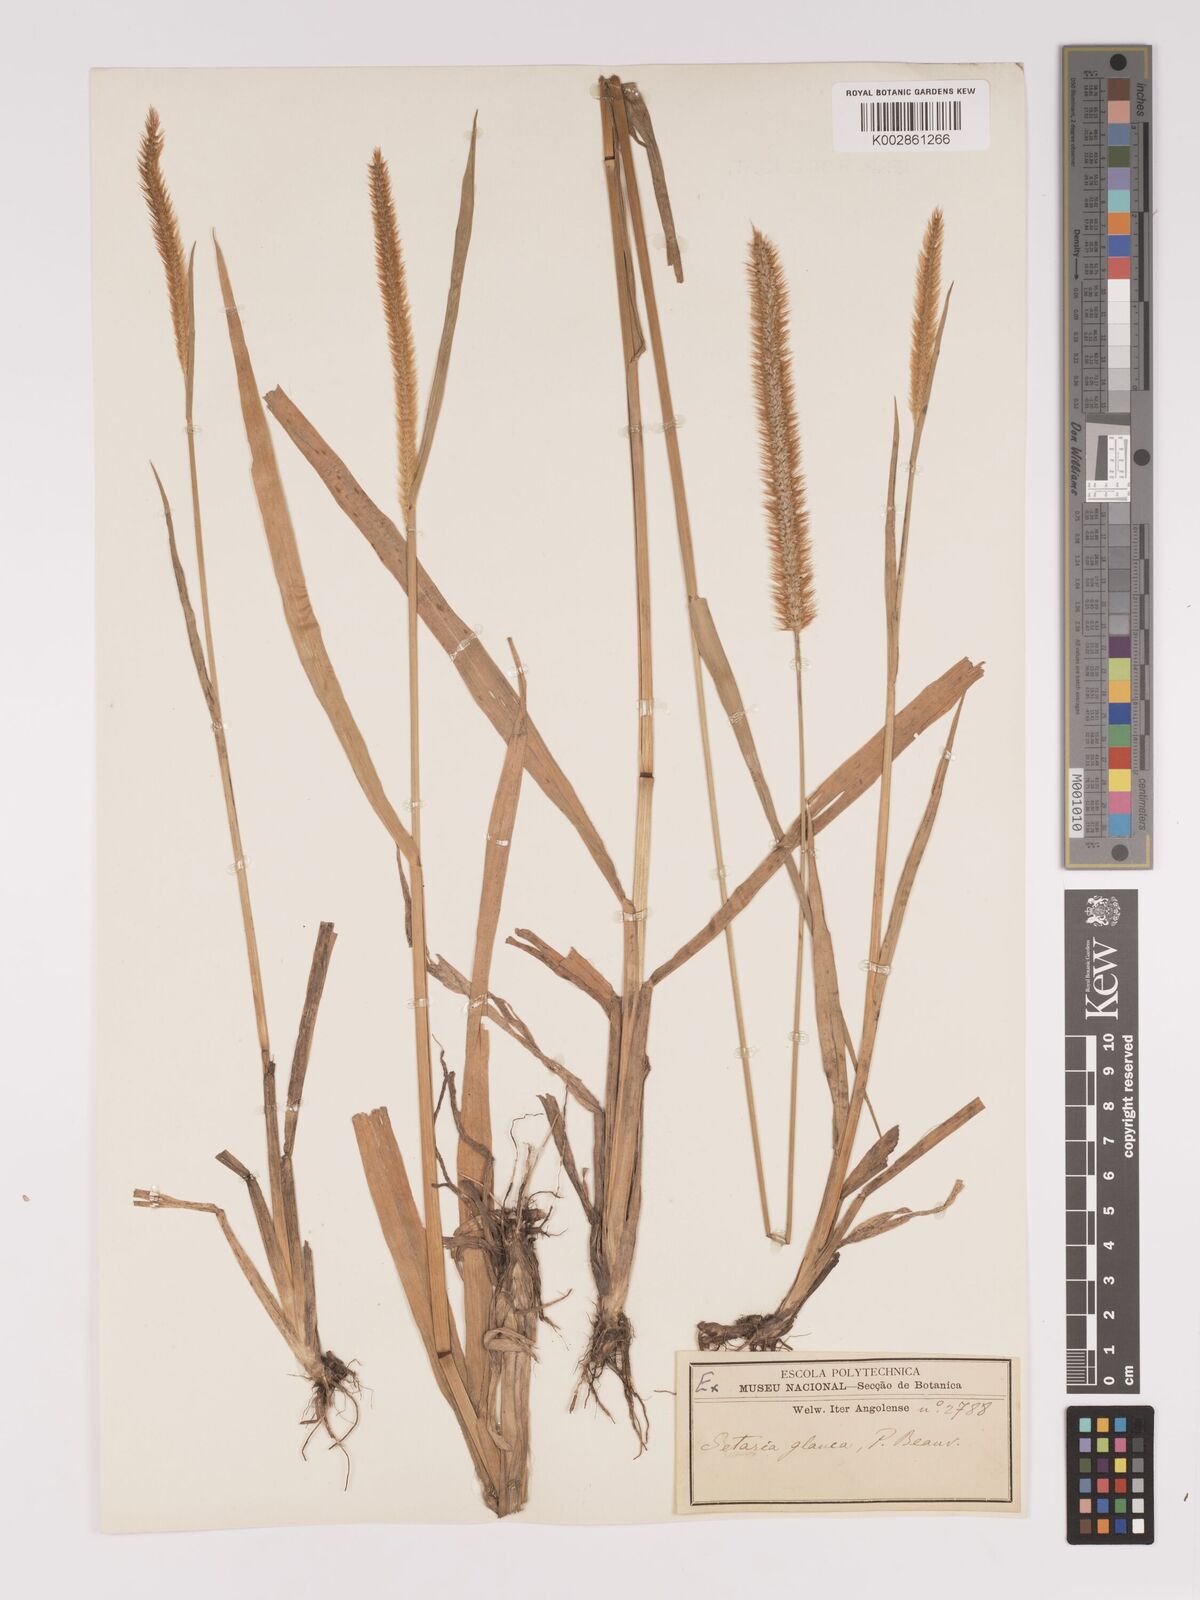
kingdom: Plantae
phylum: Tracheophyta
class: Liliopsida
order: Poales
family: Poaceae
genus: Setaria
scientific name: Setaria sphacelata
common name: African bristlegrass
